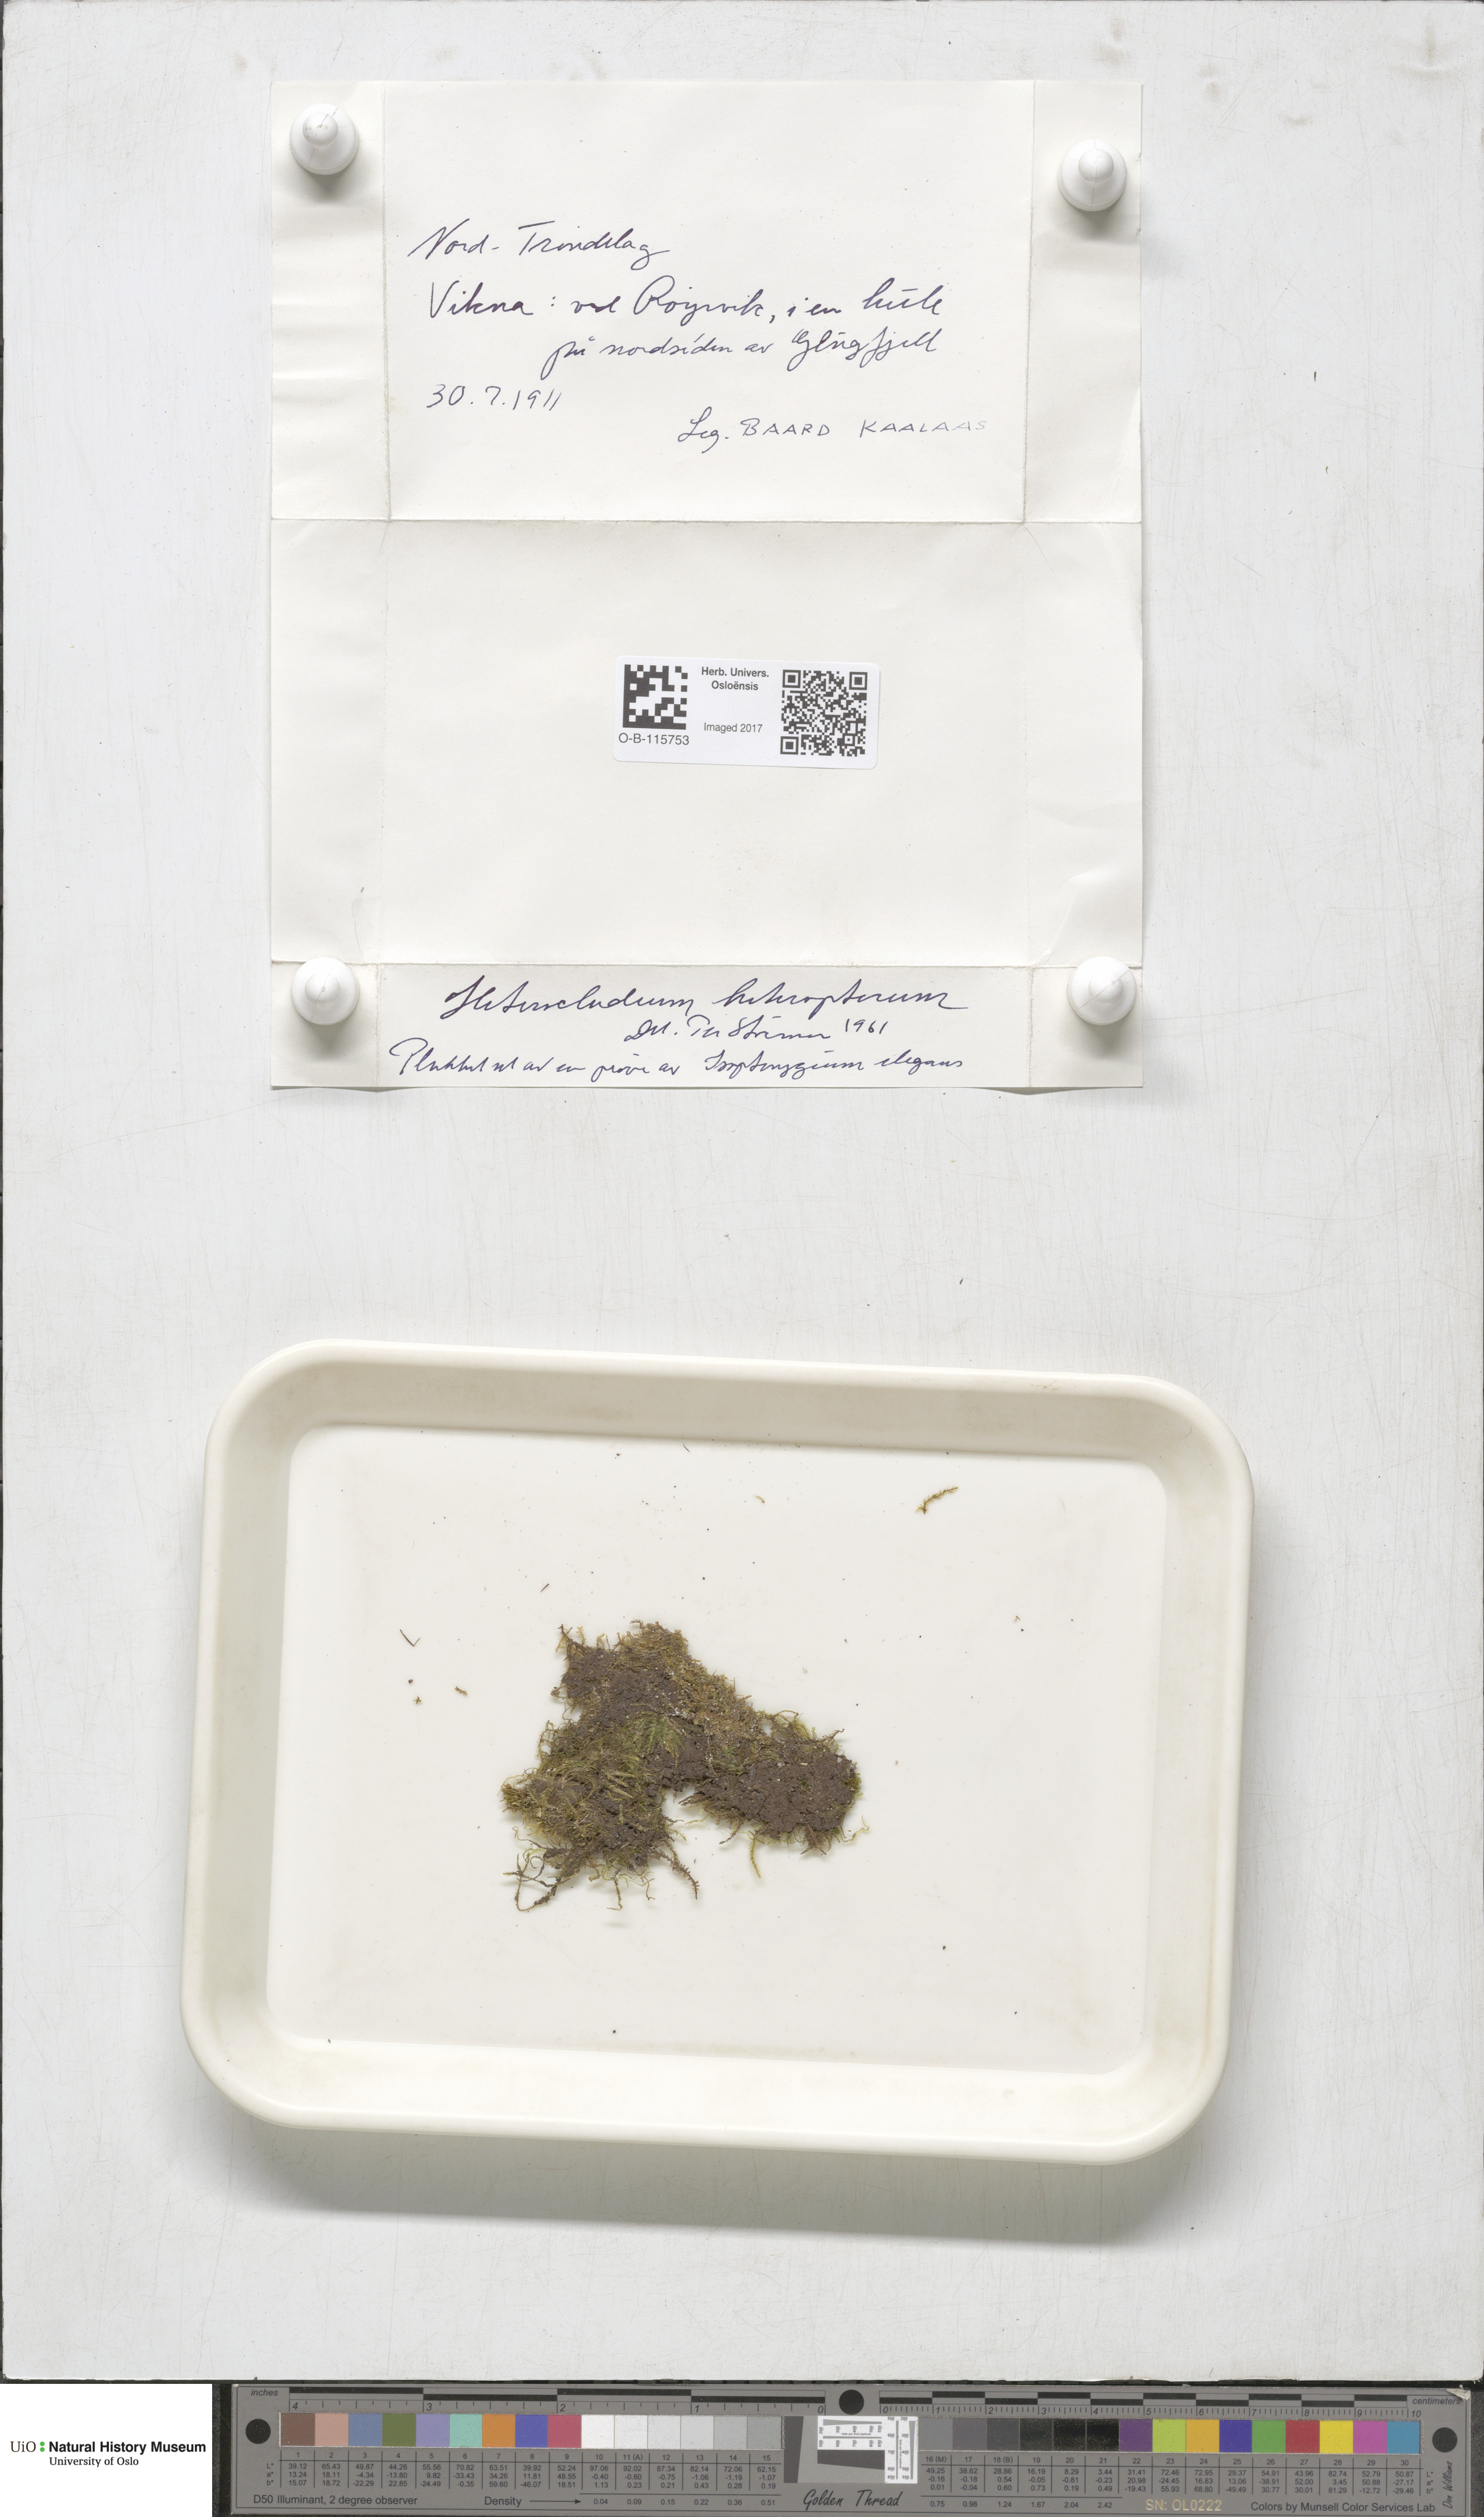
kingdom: Plantae
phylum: Bryophyta
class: Bryopsida
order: Hypnales
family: Lembophyllaceae
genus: Heterocladium
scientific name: Heterocladium heteropterum
